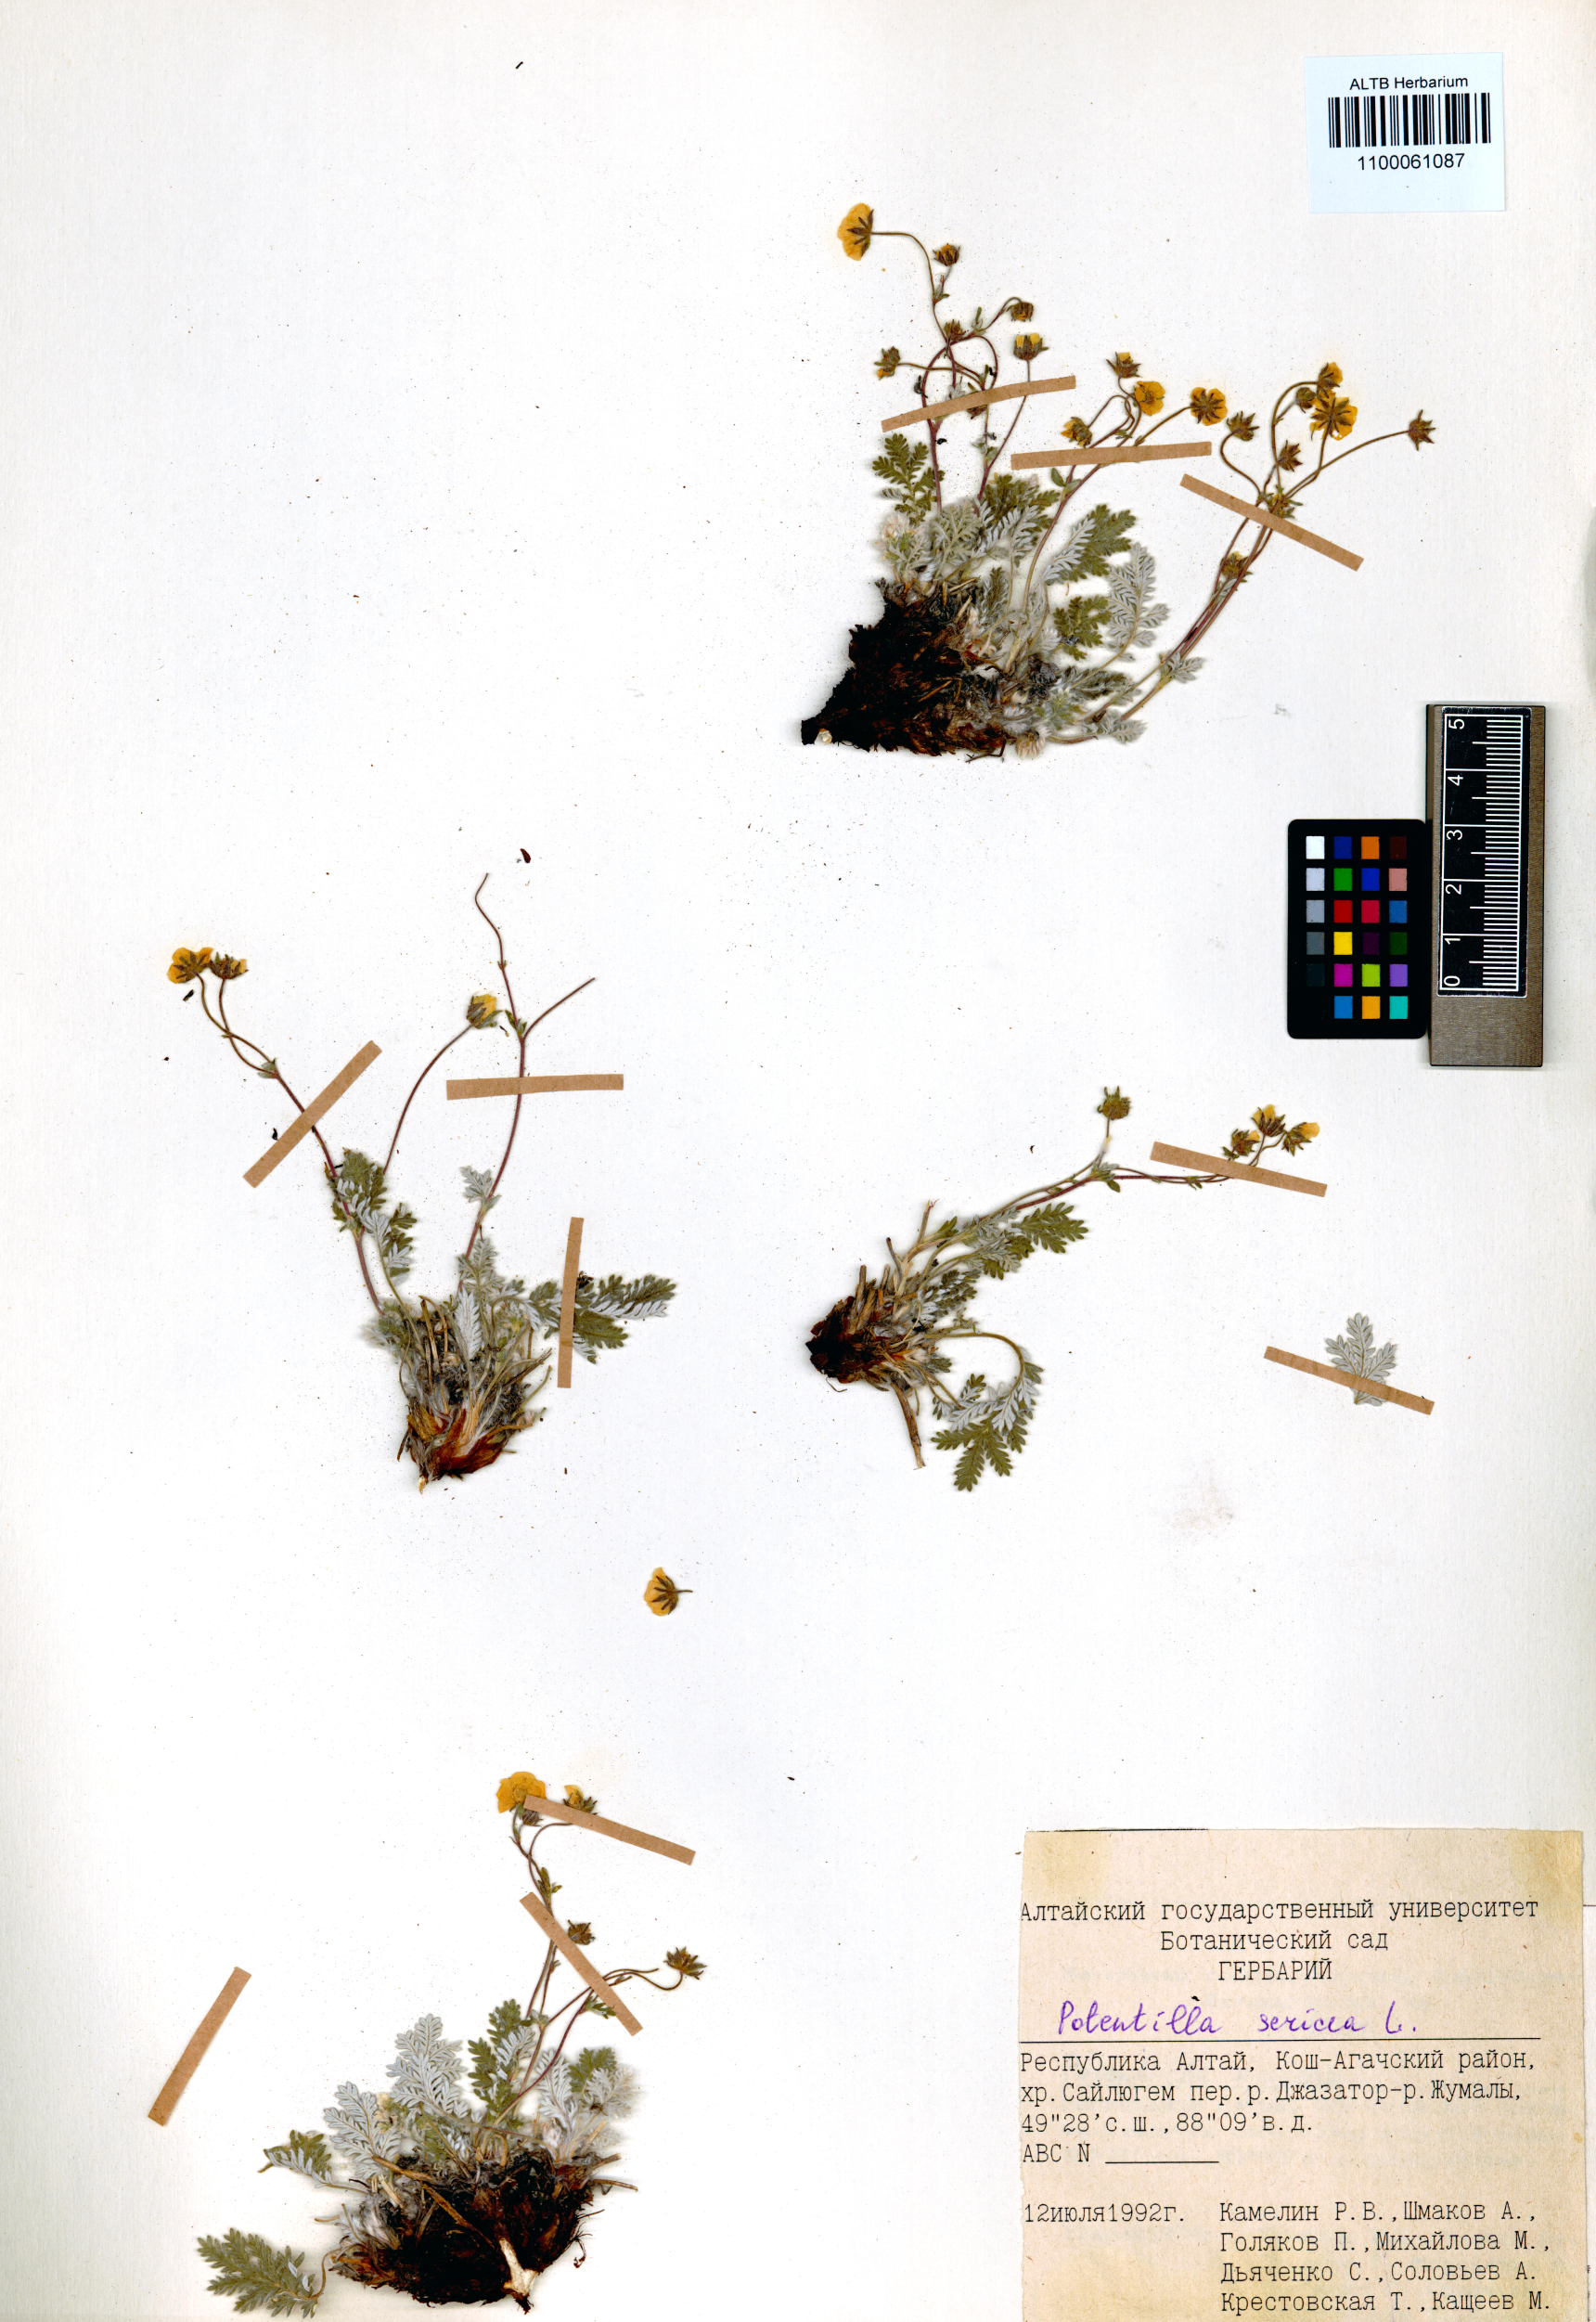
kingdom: Plantae
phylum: Tracheophyta
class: Magnoliopsida
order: Rosales
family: Rosaceae
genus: Potentilla
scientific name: Potentilla sericea
